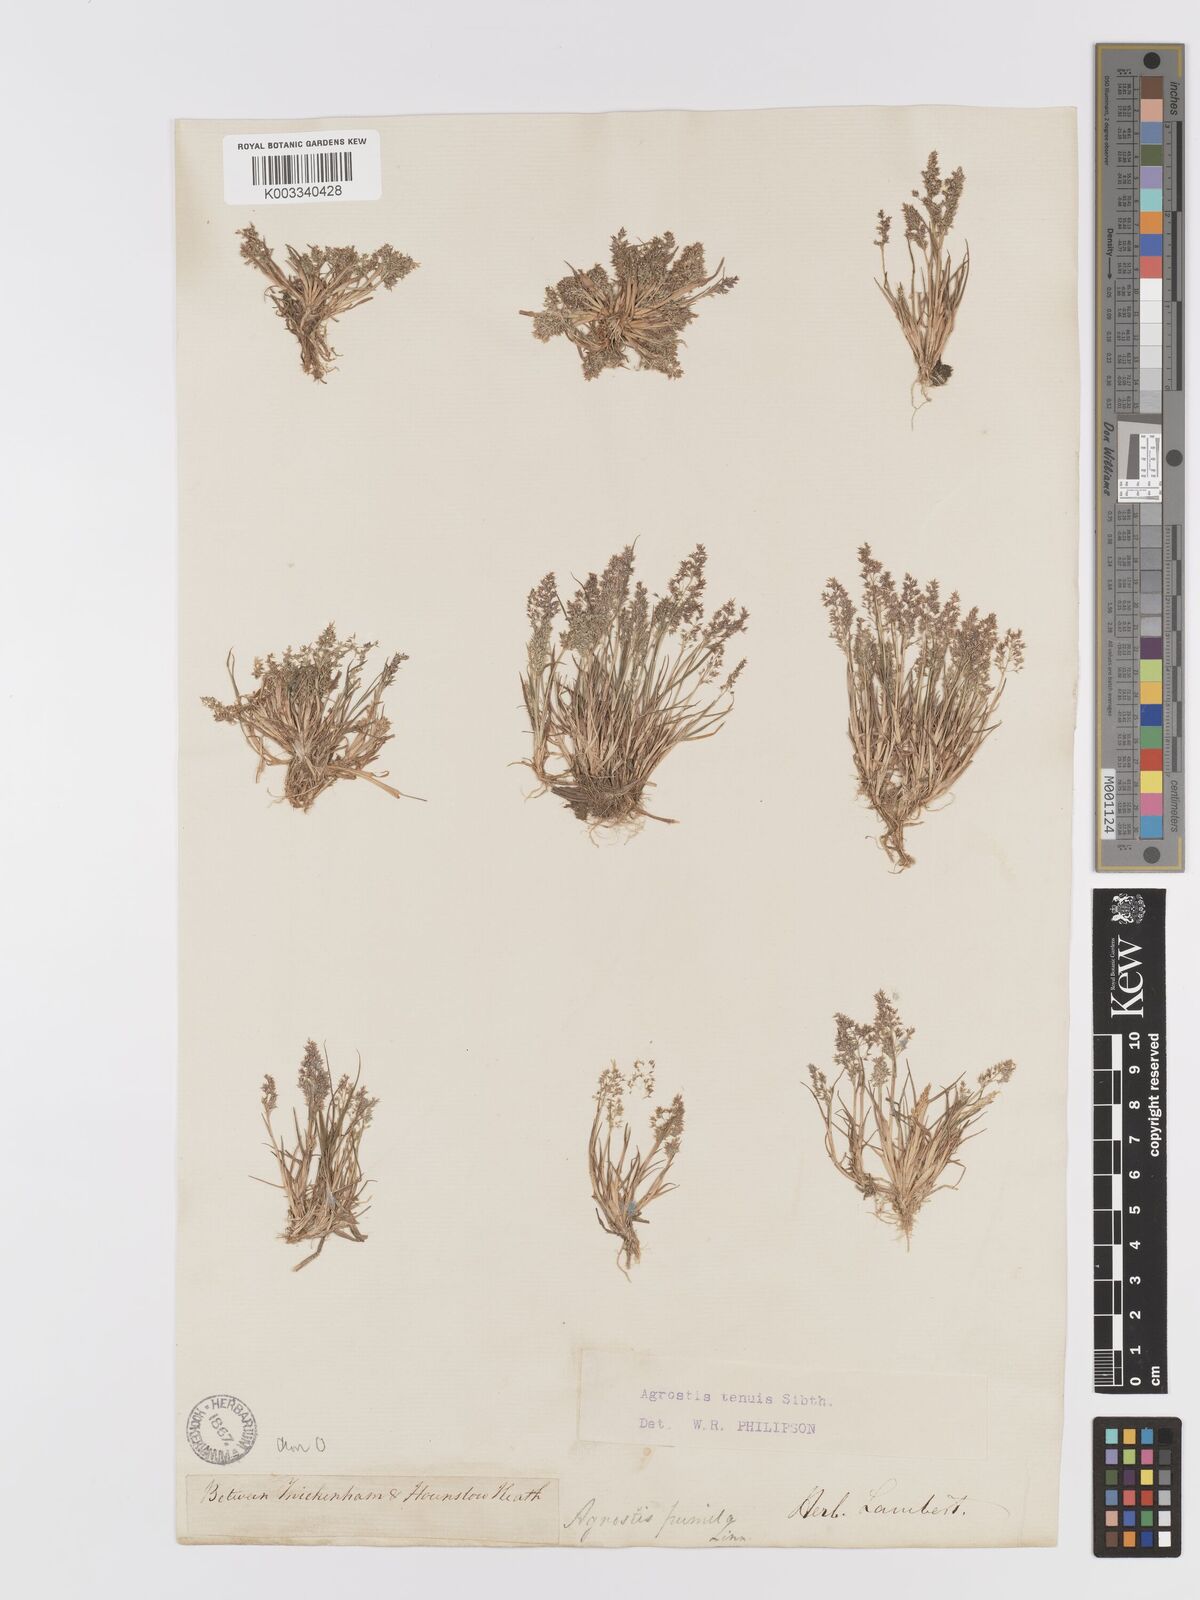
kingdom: Plantae
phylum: Tracheophyta
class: Liliopsida
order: Poales
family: Poaceae
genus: Agrostis
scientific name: Agrostis capillaris
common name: Colonial bentgrass
